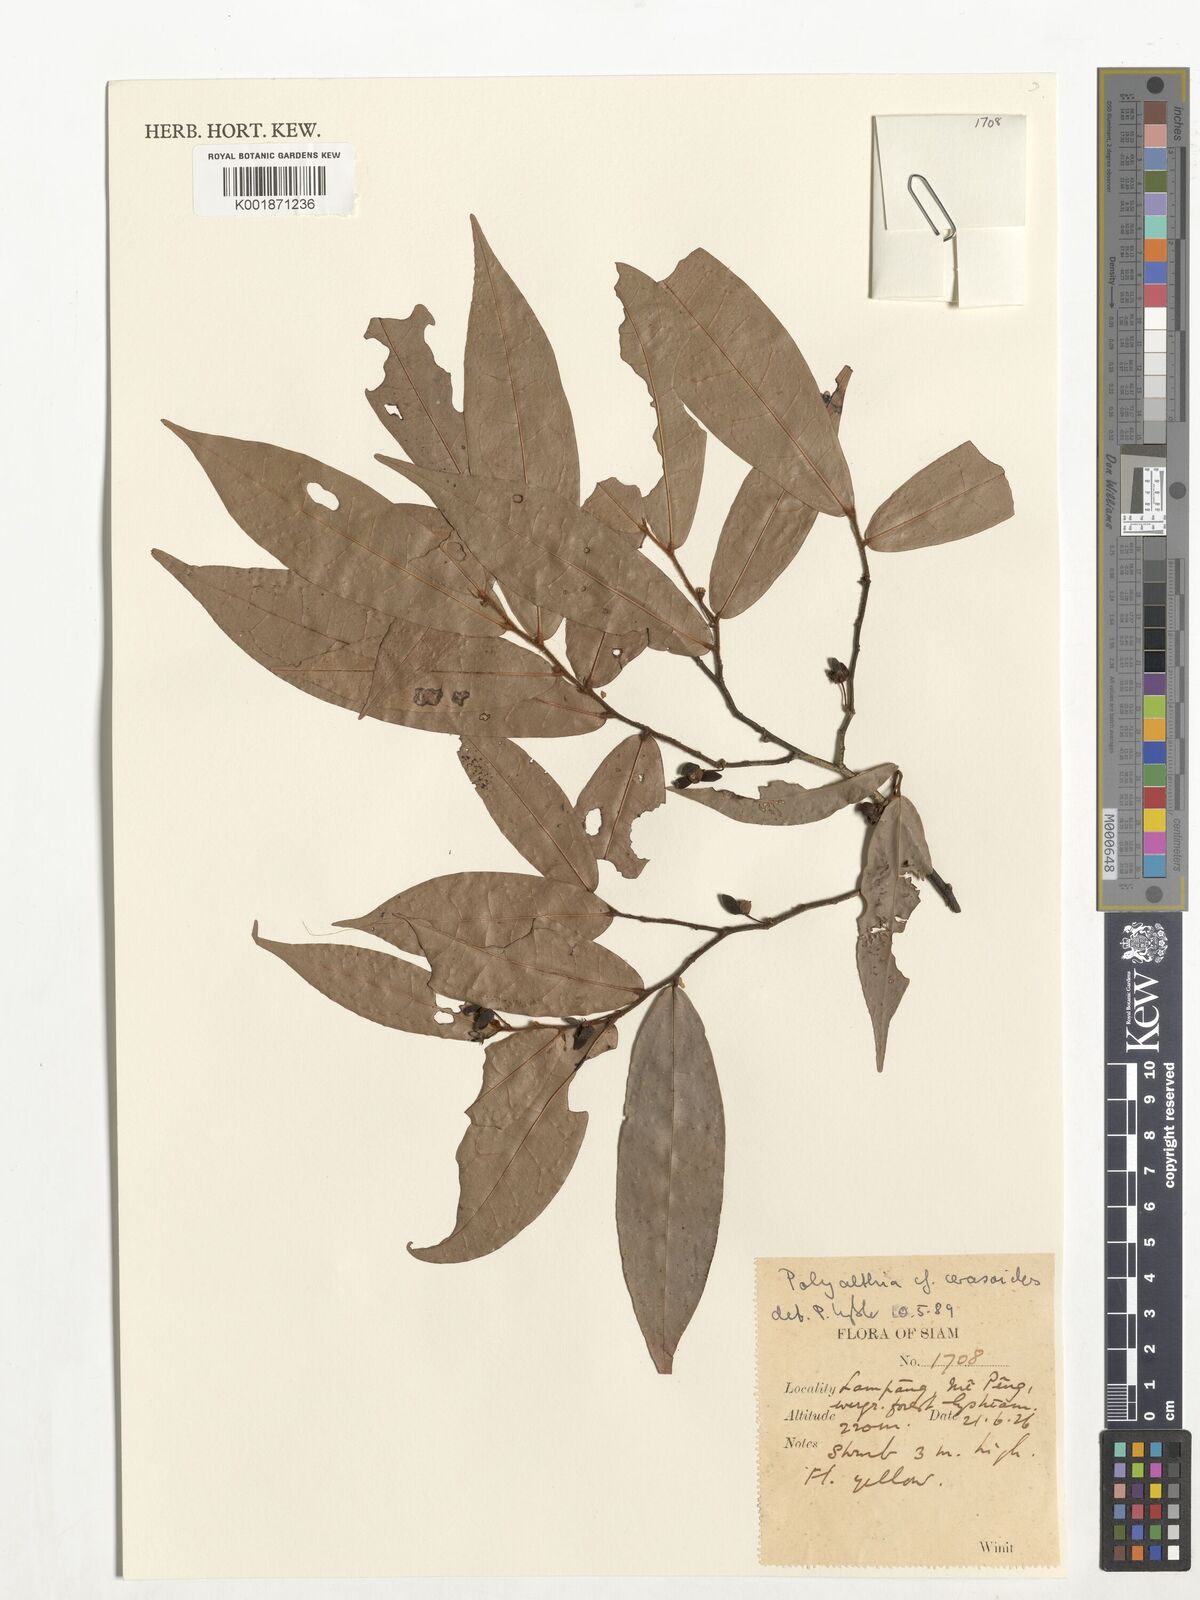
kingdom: Plantae
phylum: Tracheophyta
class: Magnoliopsida
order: Magnoliales
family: Annonaceae
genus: Polyalthia
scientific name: Polyalthia
